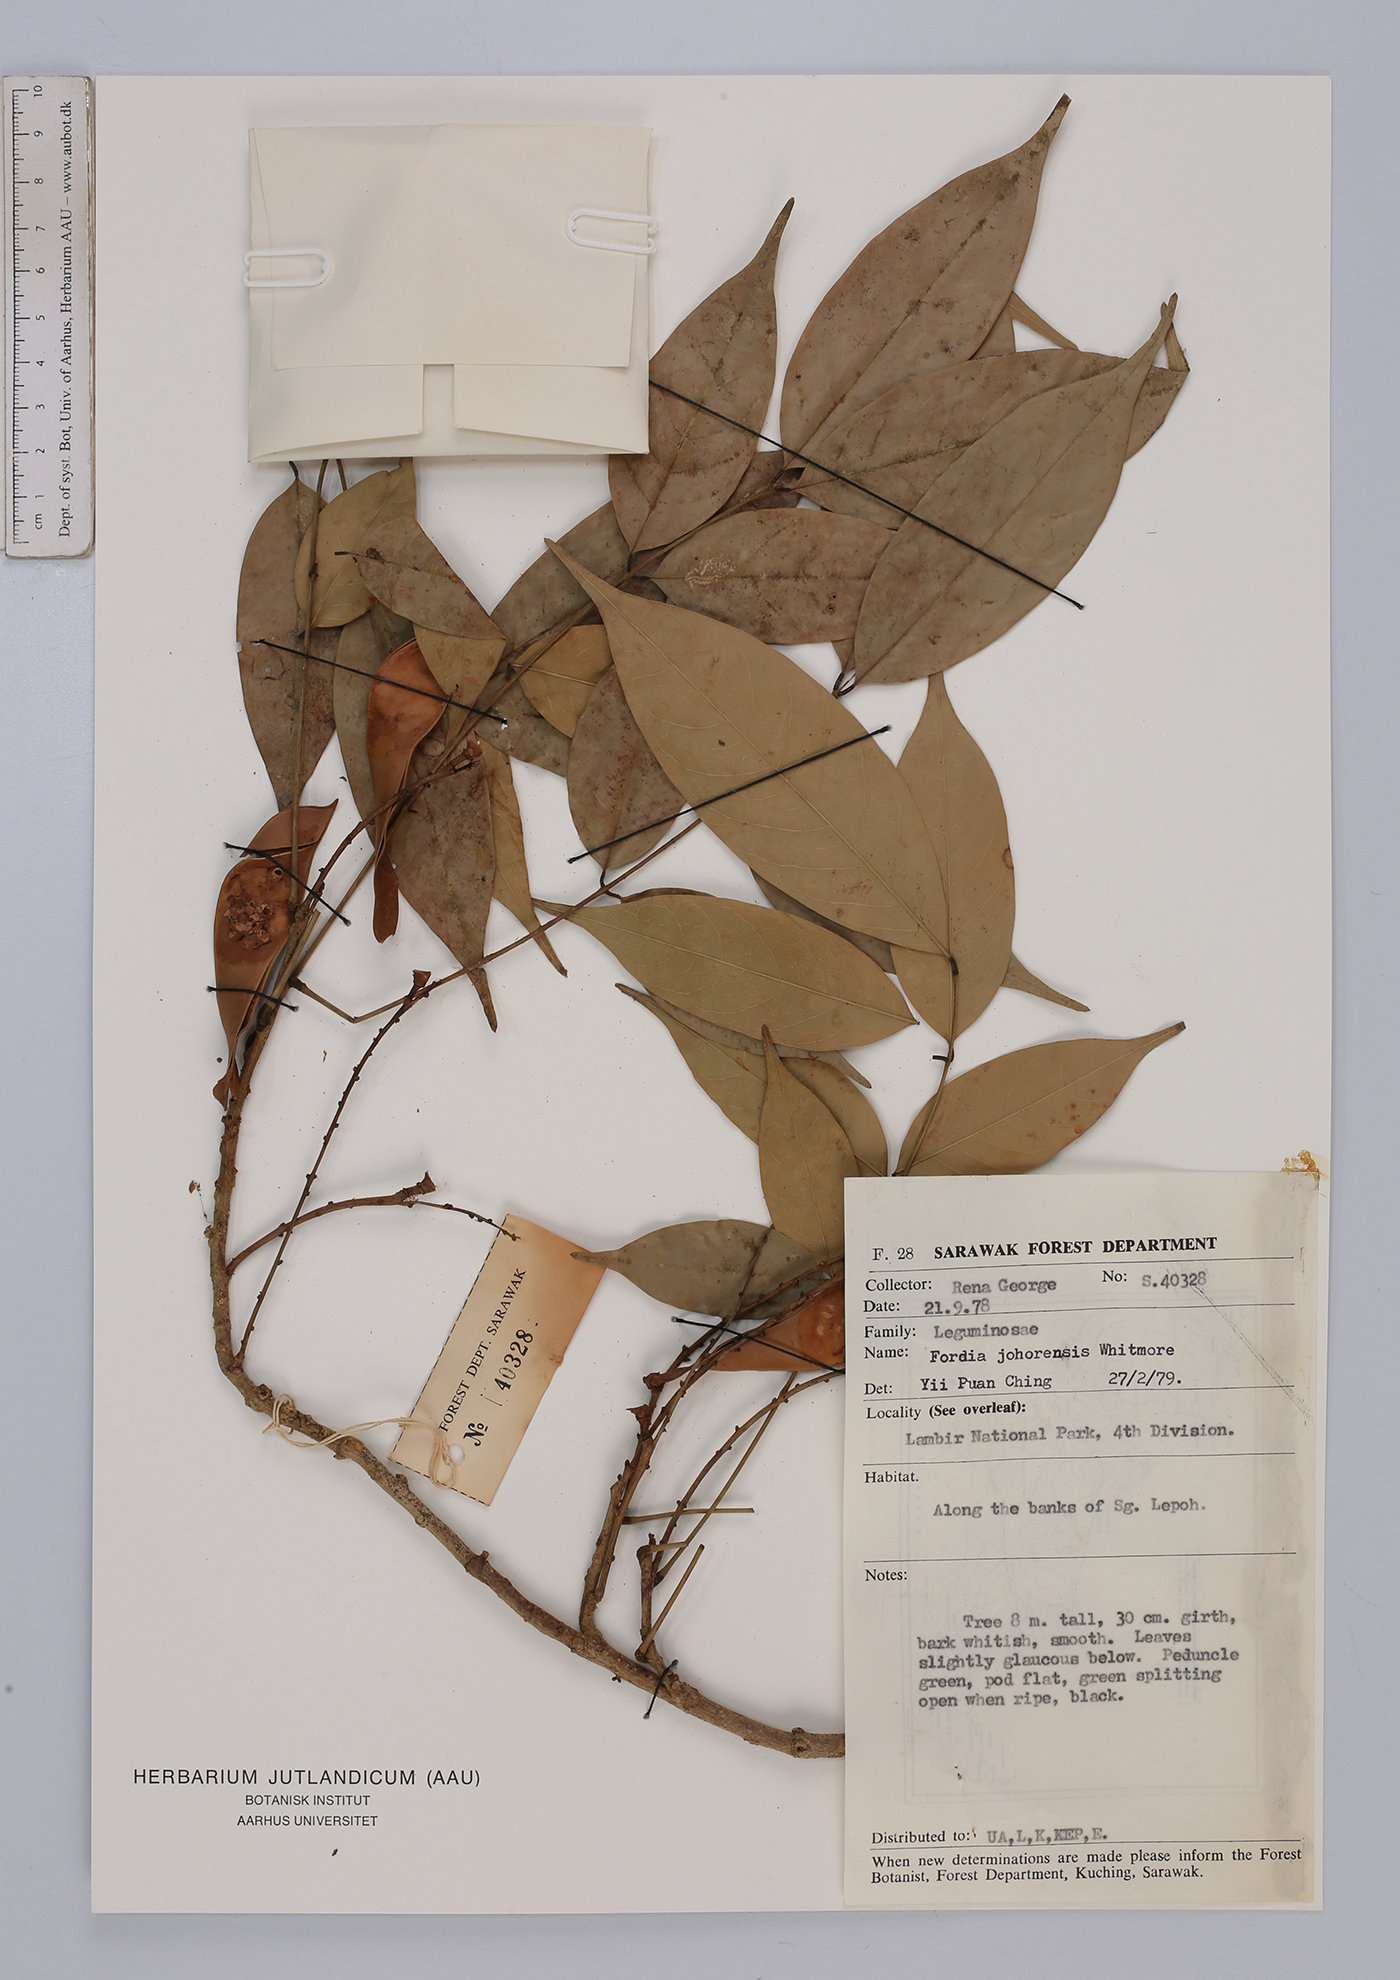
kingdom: Plantae
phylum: Tracheophyta
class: Magnoliopsida
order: Fabales
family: Fabaceae
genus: Fordia
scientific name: Fordia johorensis
